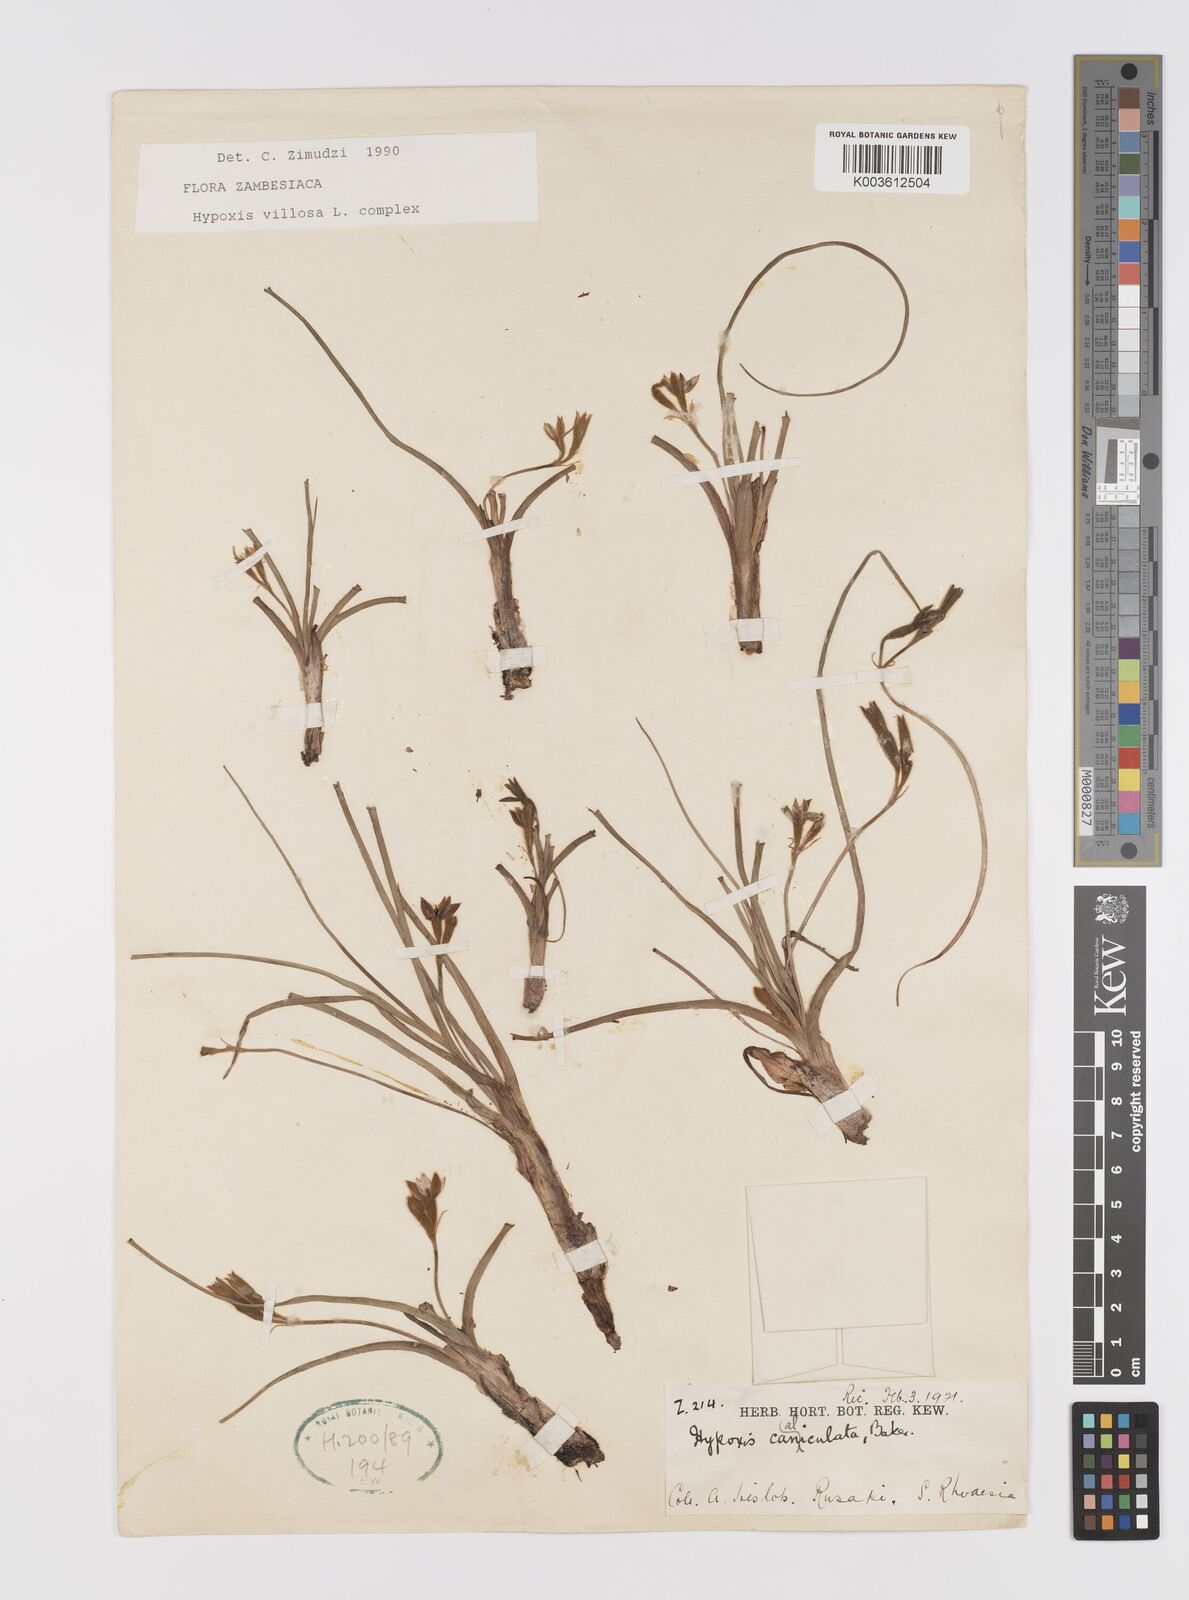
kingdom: Plantae
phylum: Tracheophyta
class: Liliopsida
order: Asparagales
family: Hypoxidaceae
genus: Hypoxis
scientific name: Hypoxis nyasica
